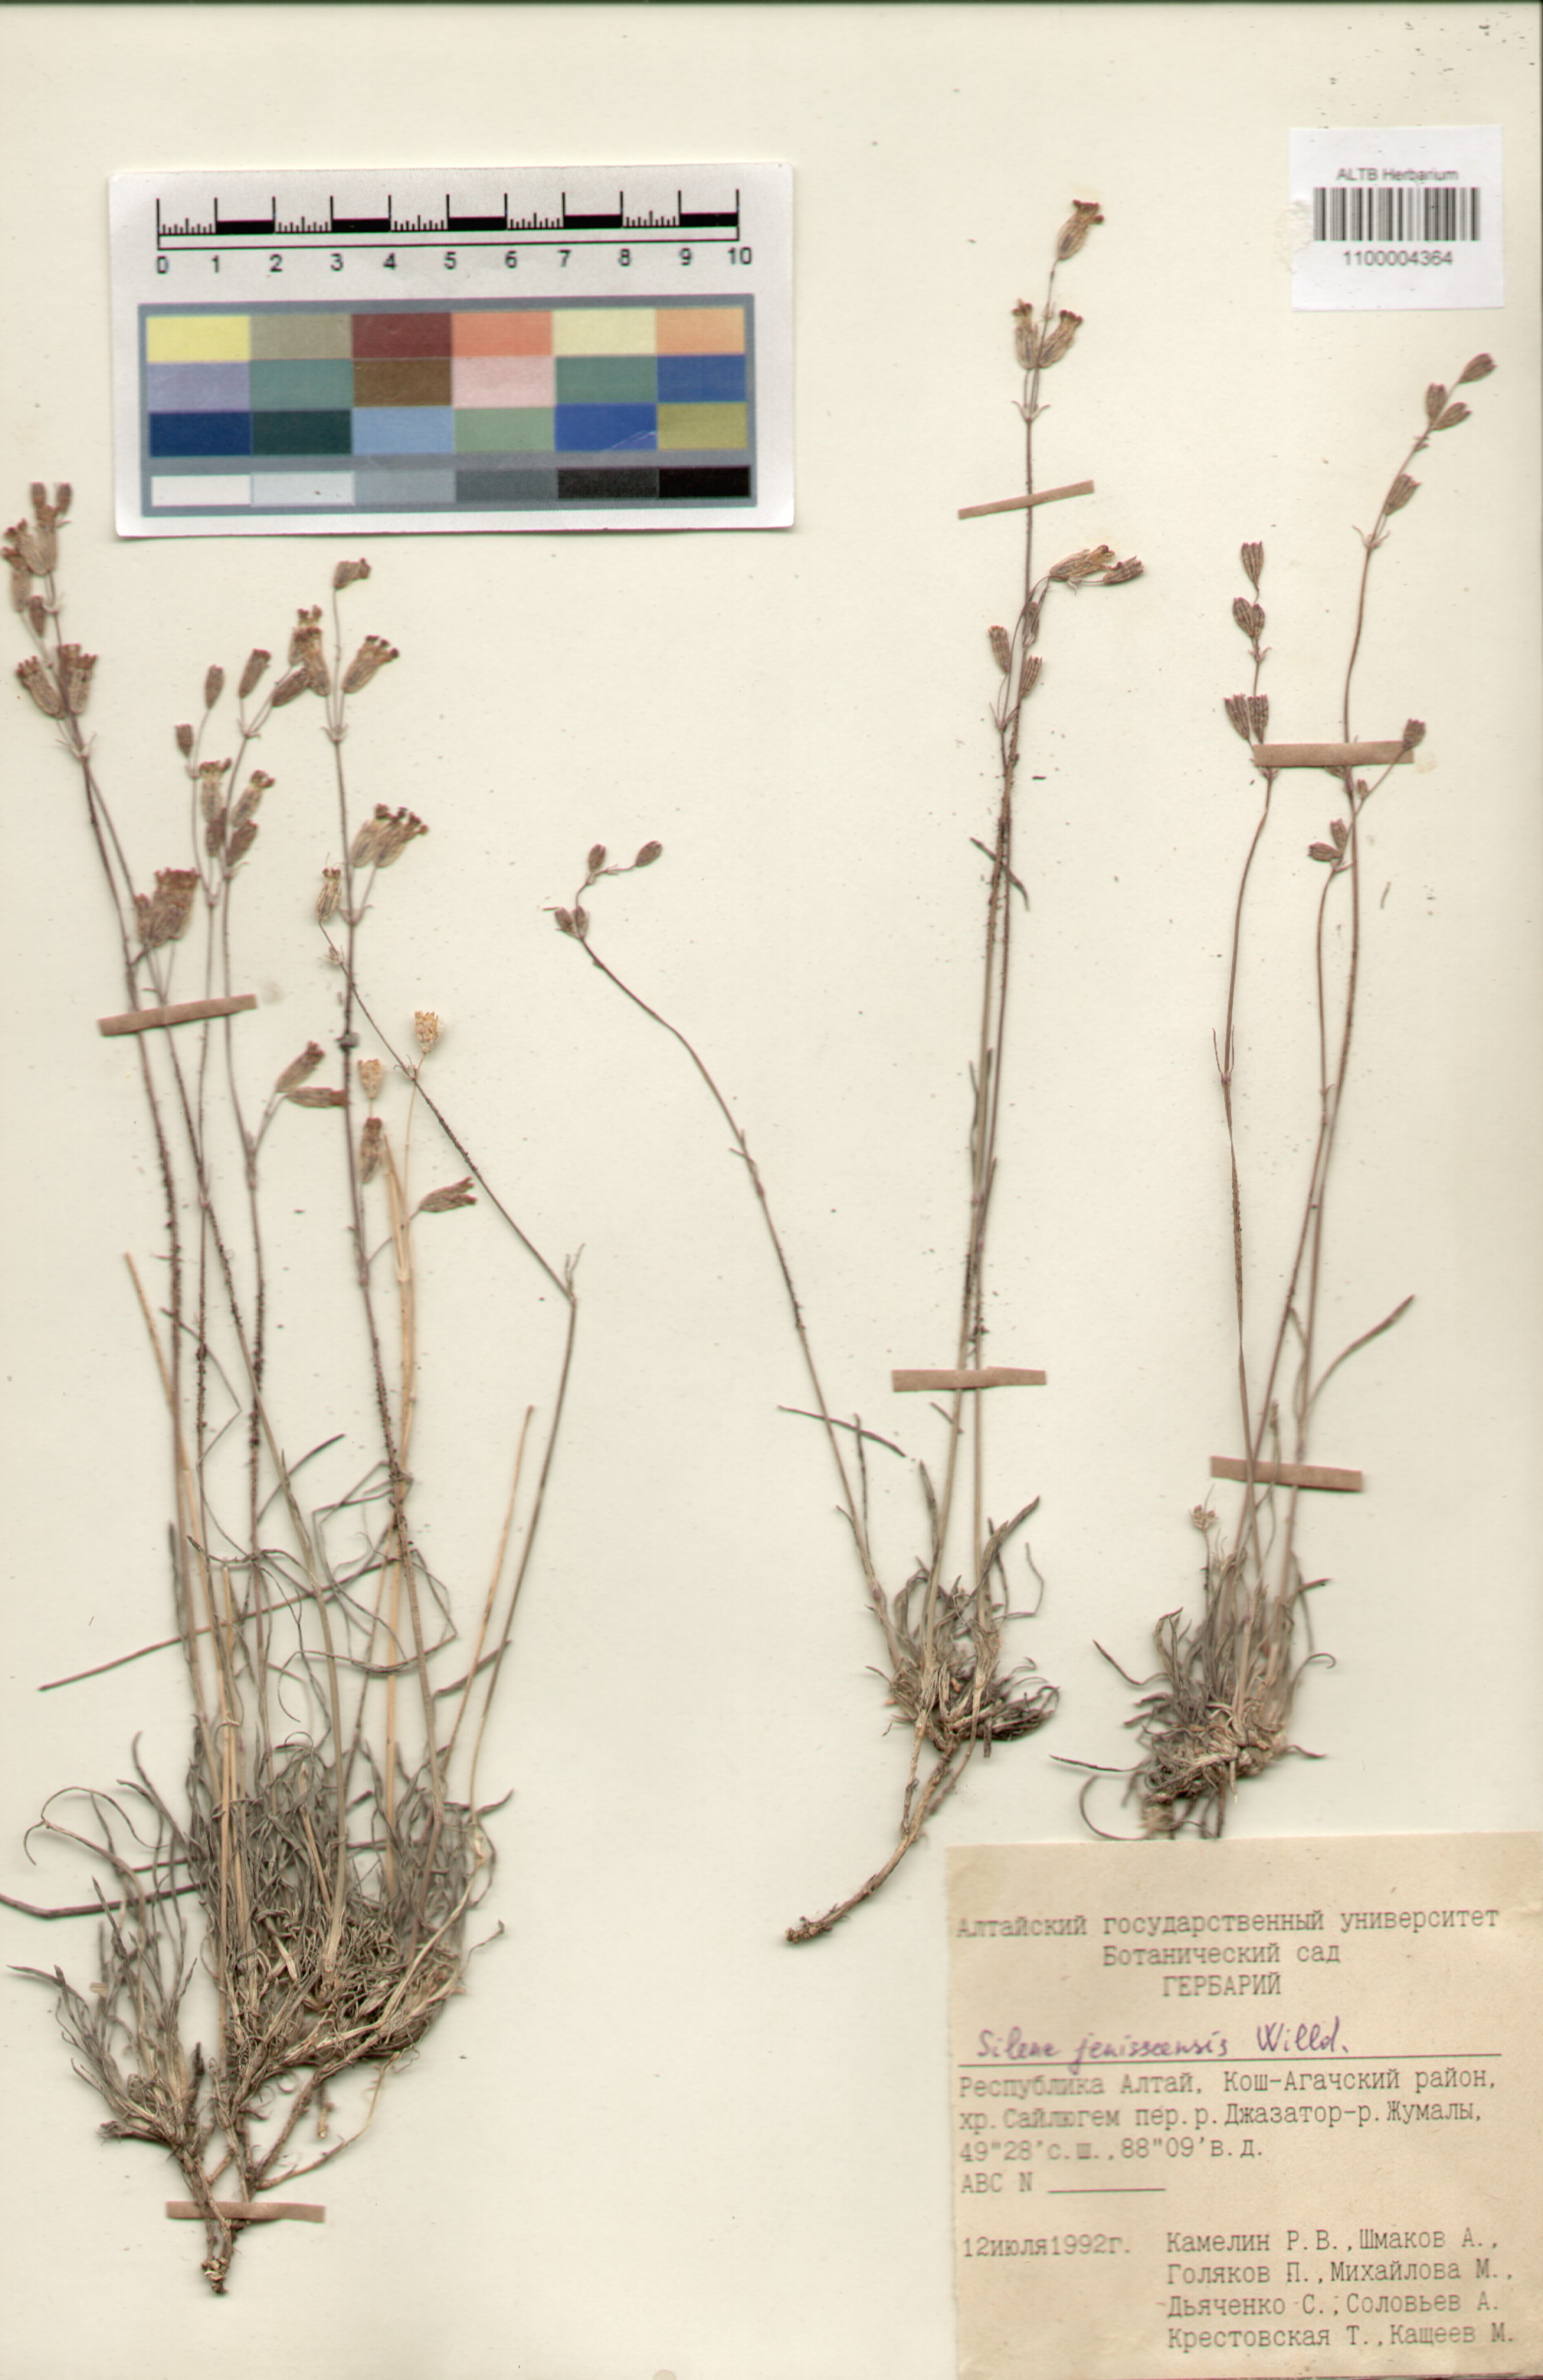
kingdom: Plantae
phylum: Tracheophyta
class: Magnoliopsida
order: Caryophyllales
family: Caryophyllaceae
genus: Silene
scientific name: Silene jeniseensis
